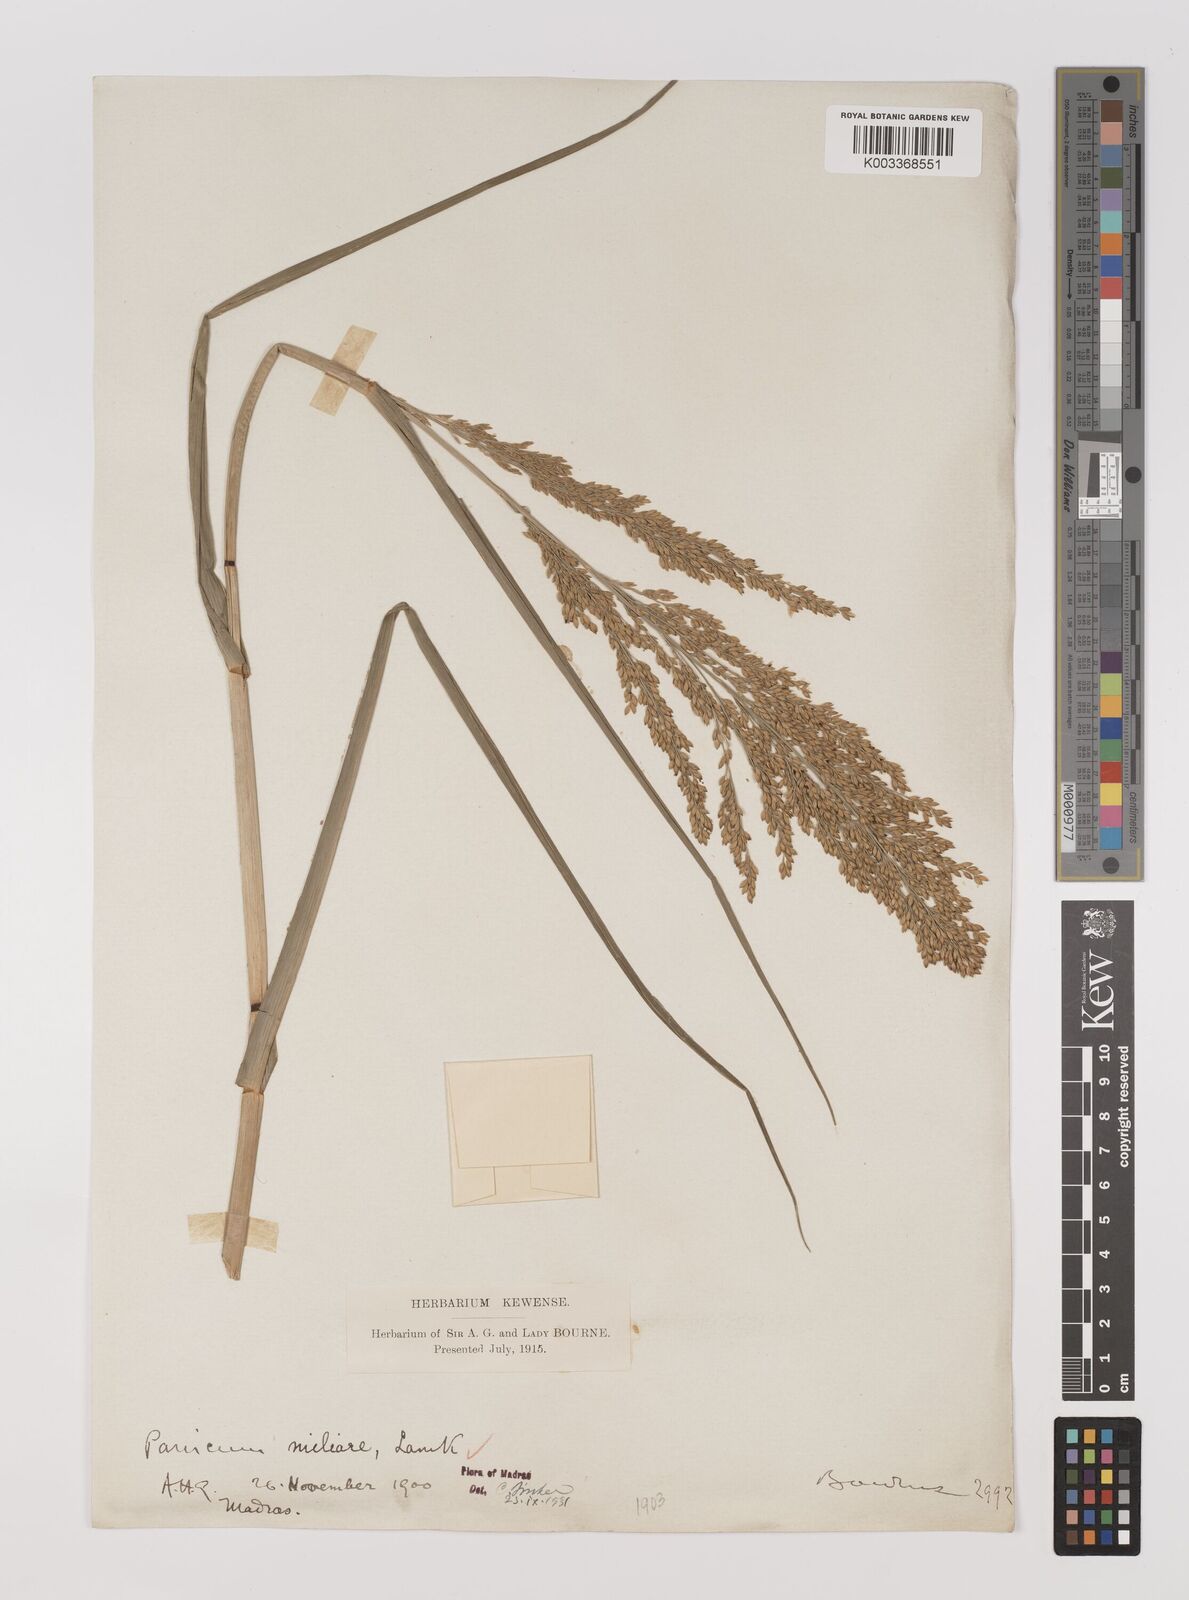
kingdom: Plantae
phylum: Tracheophyta
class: Liliopsida
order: Poales
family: Poaceae
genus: Panicum
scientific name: Panicum sumatrense
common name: Little millet
